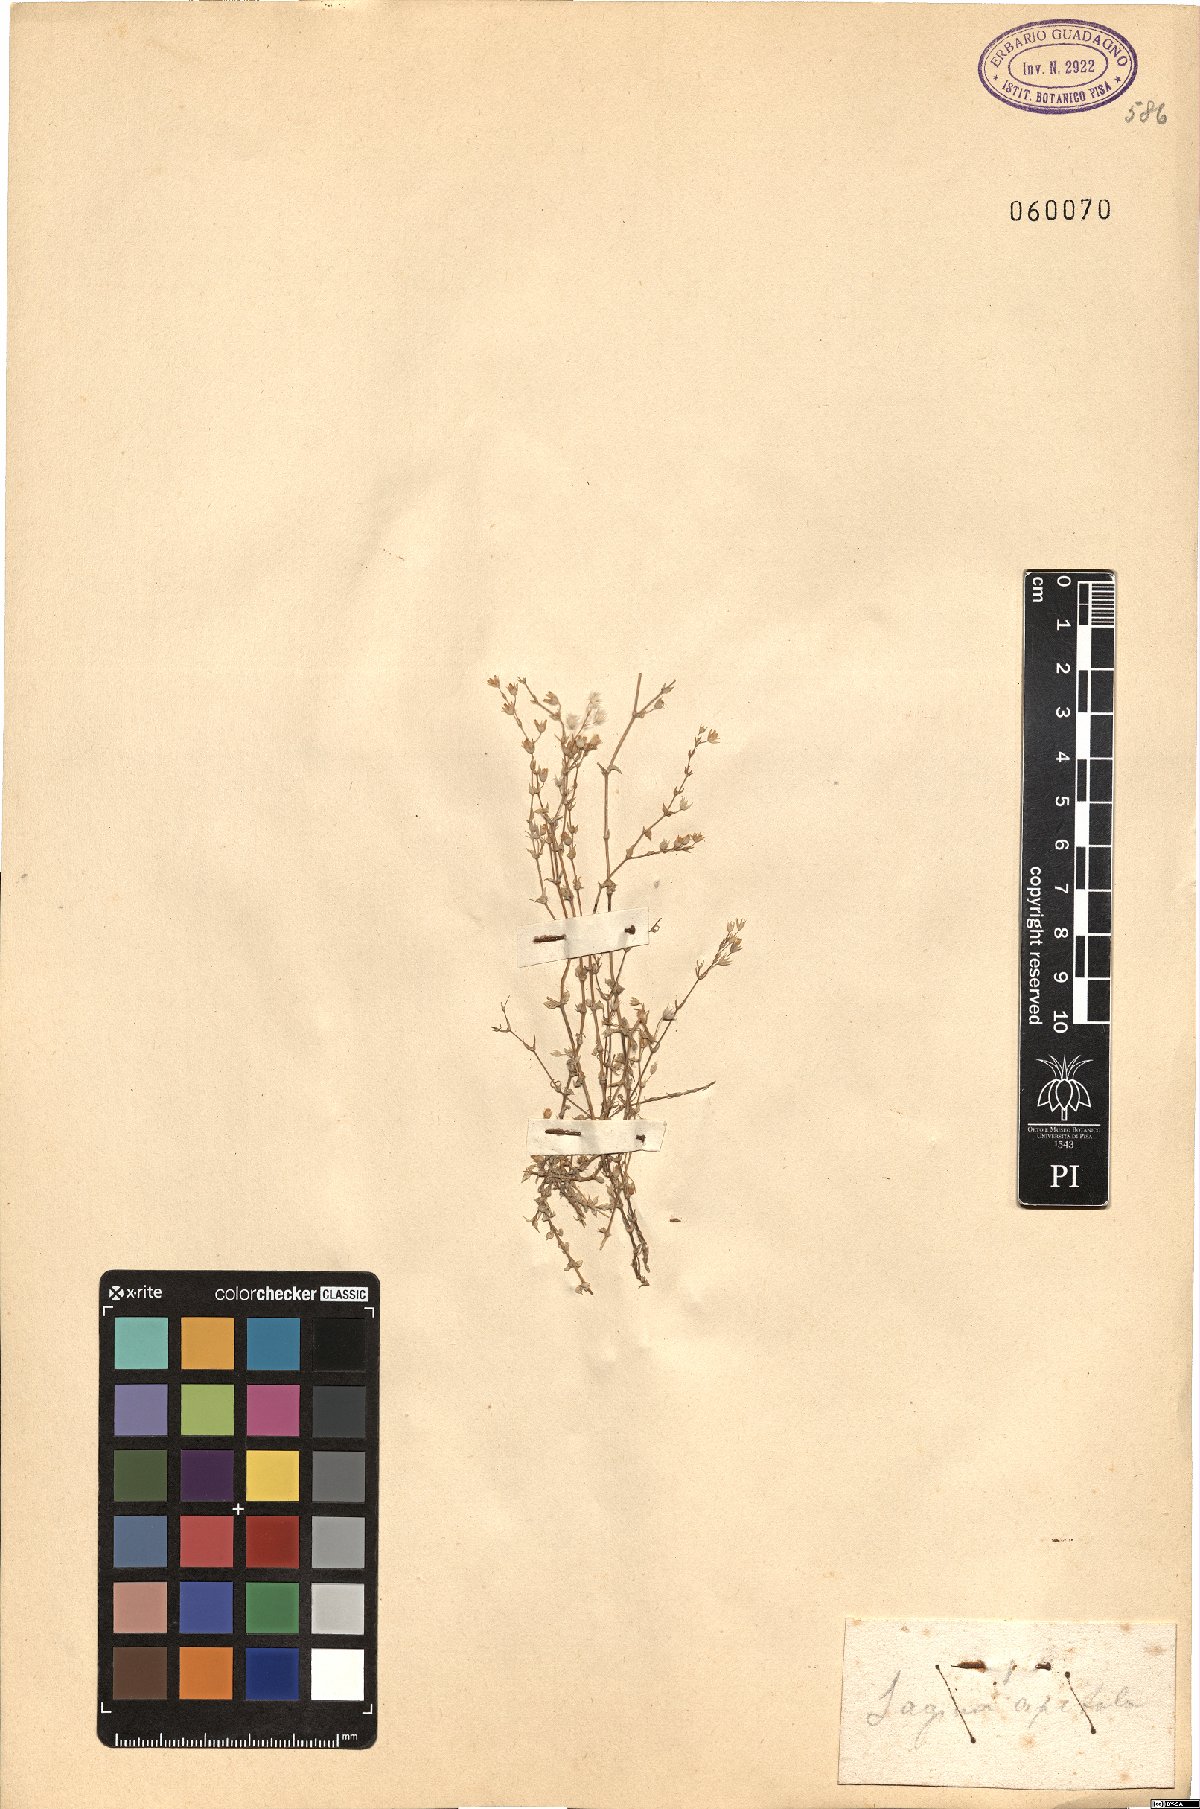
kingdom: Plantae
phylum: Tracheophyta
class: Magnoliopsida
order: Caryophyllales
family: Caryophyllaceae
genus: Sagina
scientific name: Sagina apetala
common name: Annual pearlwort
